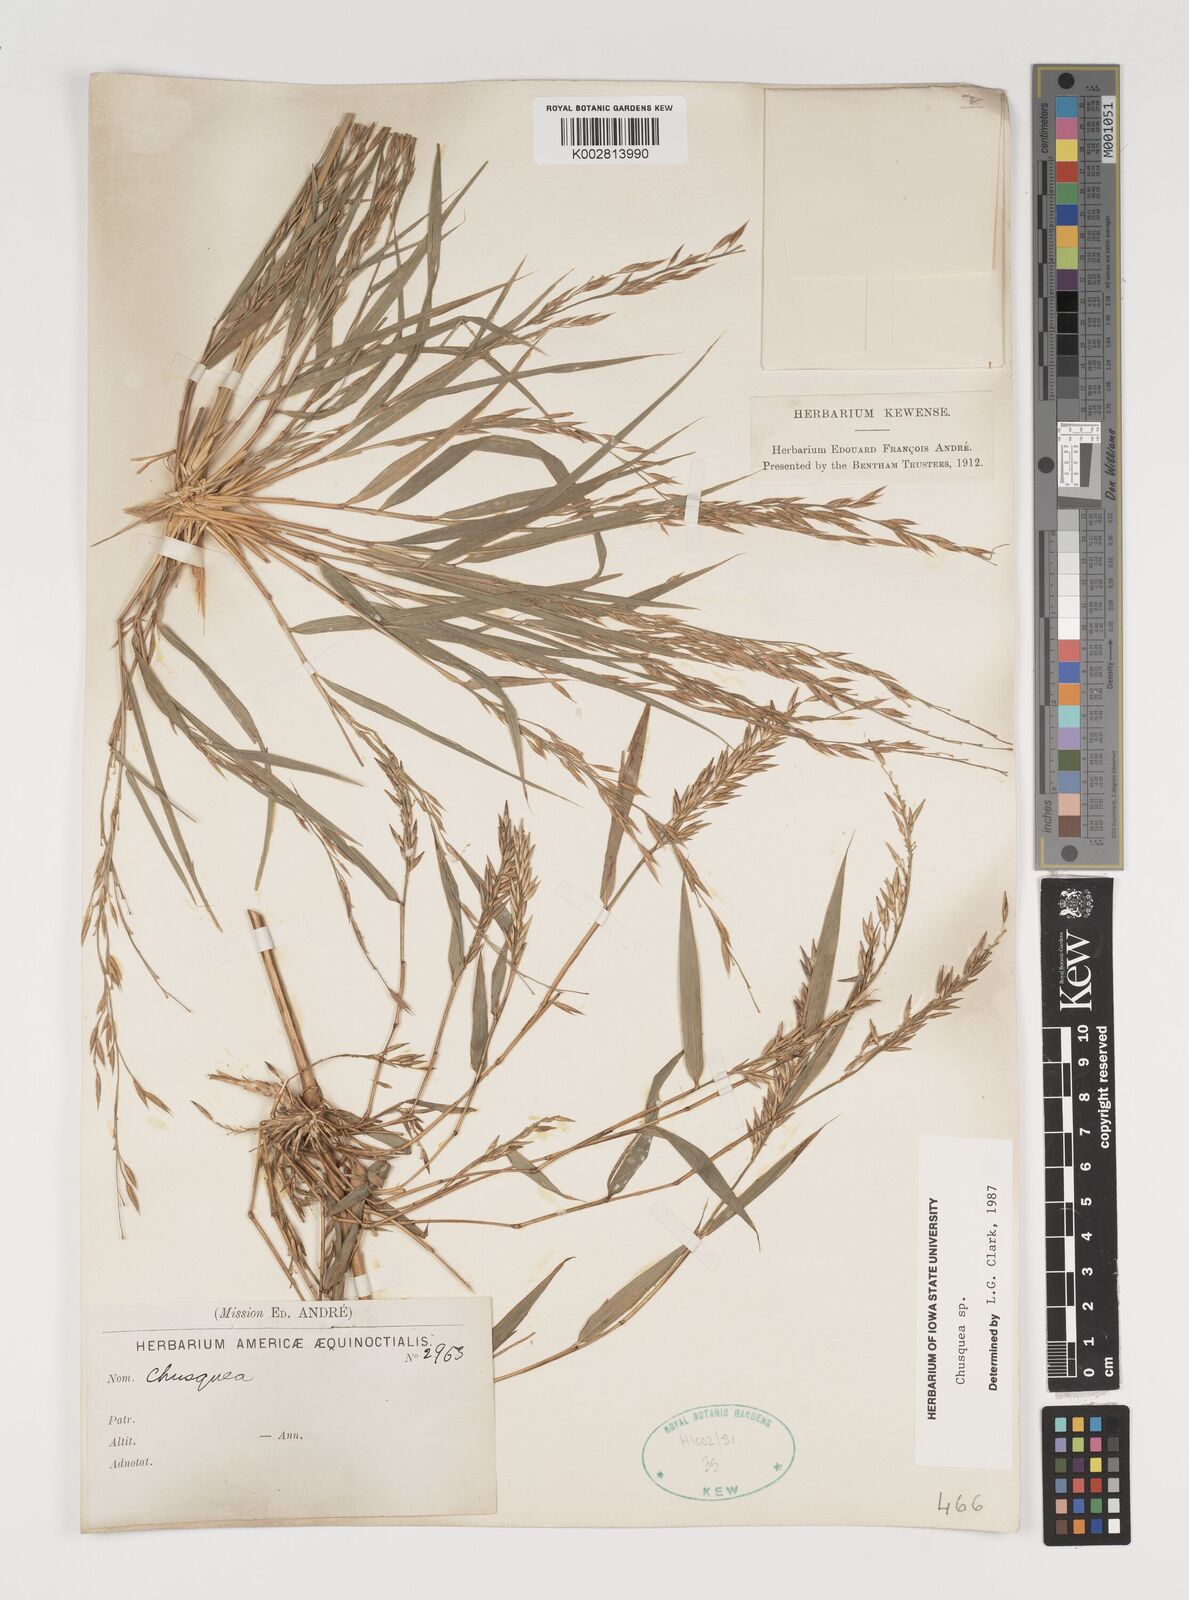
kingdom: Plantae
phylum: Tracheophyta
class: Liliopsida
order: Poales
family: Poaceae
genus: Chusquea
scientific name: Chusquea
